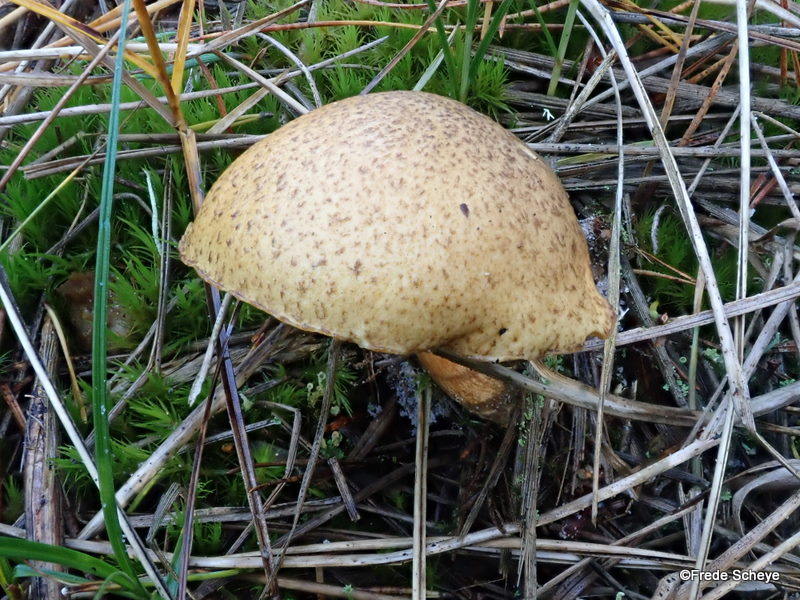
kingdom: Fungi
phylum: Basidiomycota
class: Agaricomycetes
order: Boletales
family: Suillaceae
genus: Suillus
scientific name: Suillus variegatus
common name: broget slimrørhat
